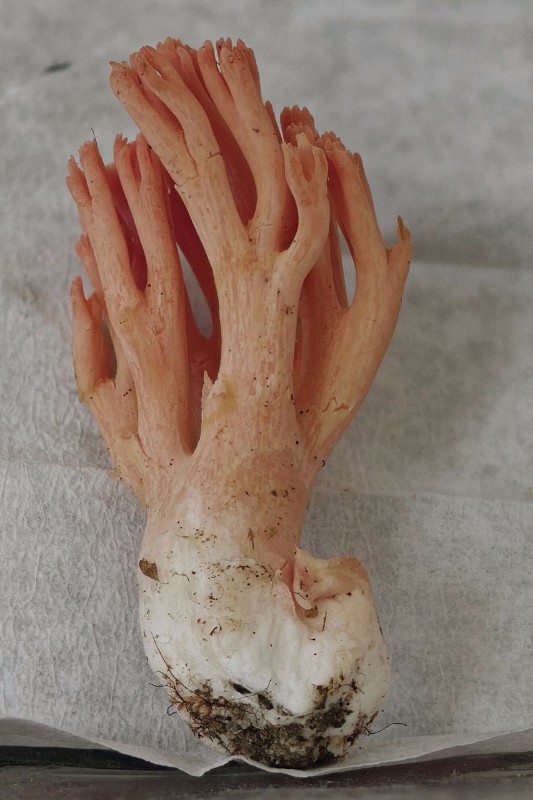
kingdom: Fungi
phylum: Basidiomycota
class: Agaricomycetes
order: Gomphales
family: Gomphaceae
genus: Ramaria
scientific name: Ramaria formosa
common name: smuk koralsvamp
